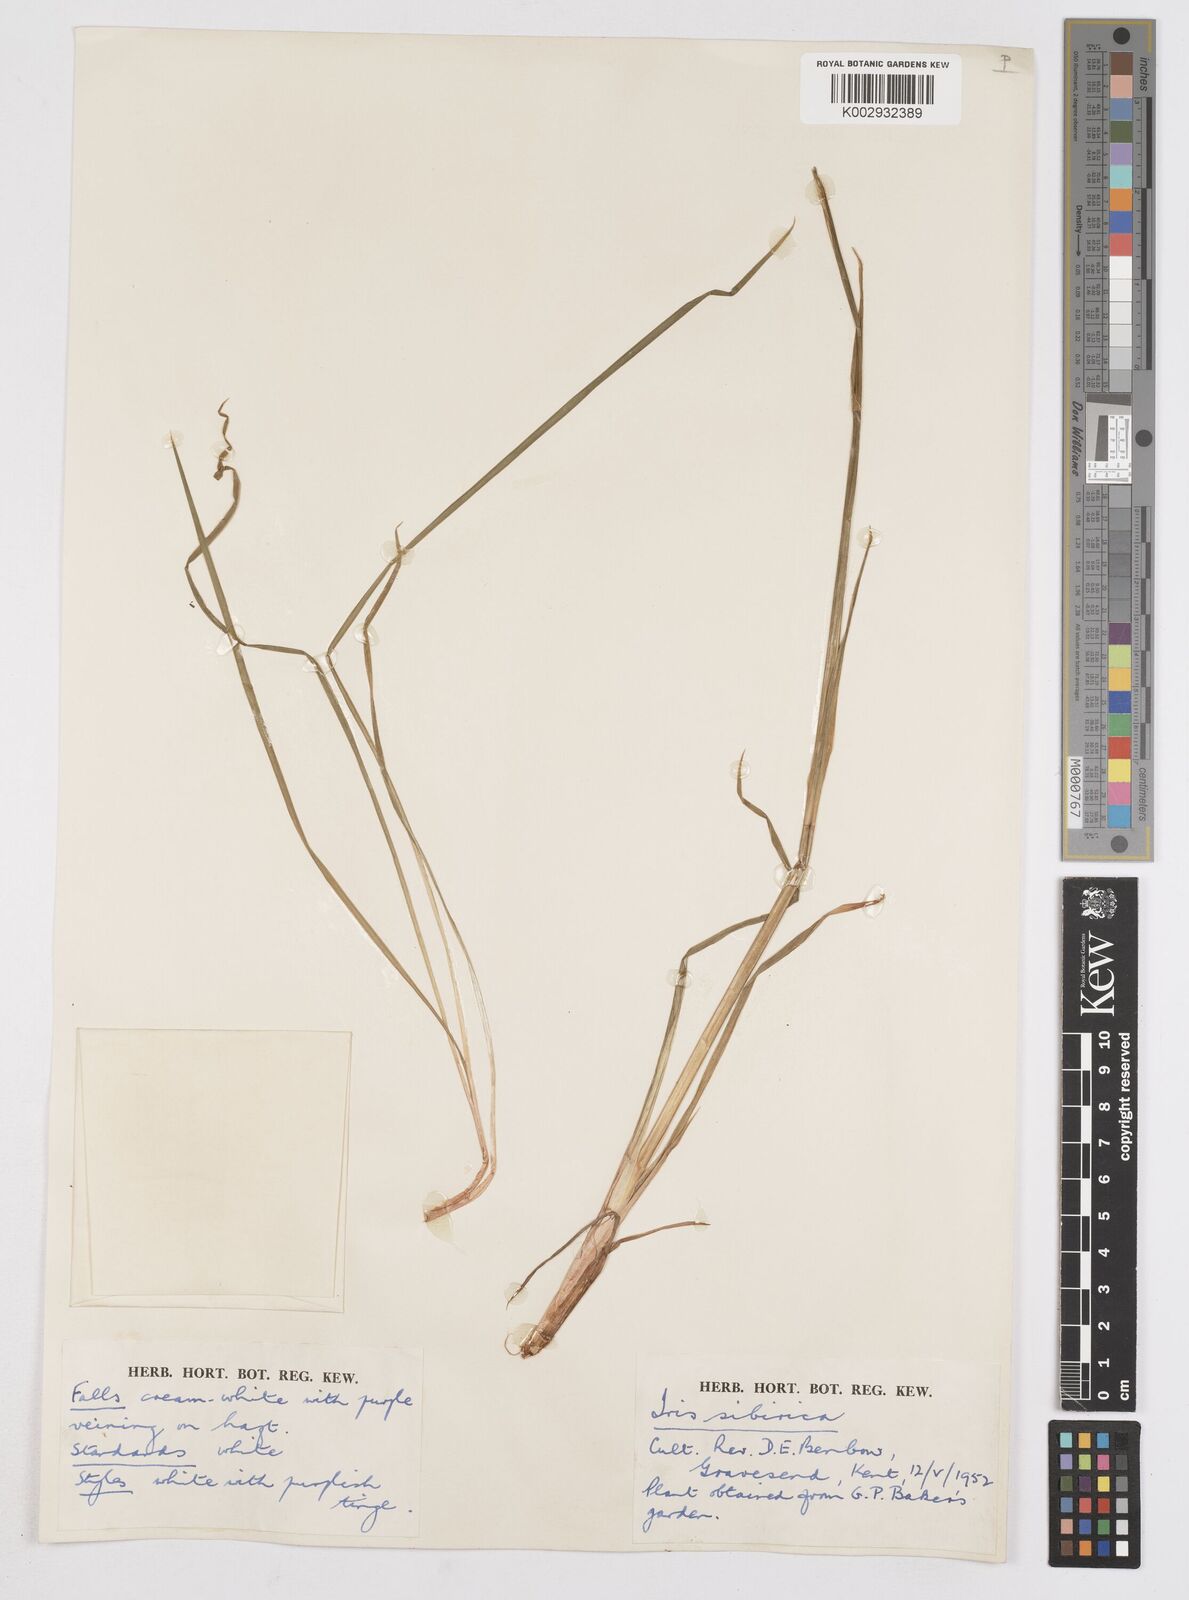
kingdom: Plantae
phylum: Tracheophyta
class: Liliopsida
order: Asparagales
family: Iridaceae
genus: Iris
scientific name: Iris sibirica
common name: Siberian iris
